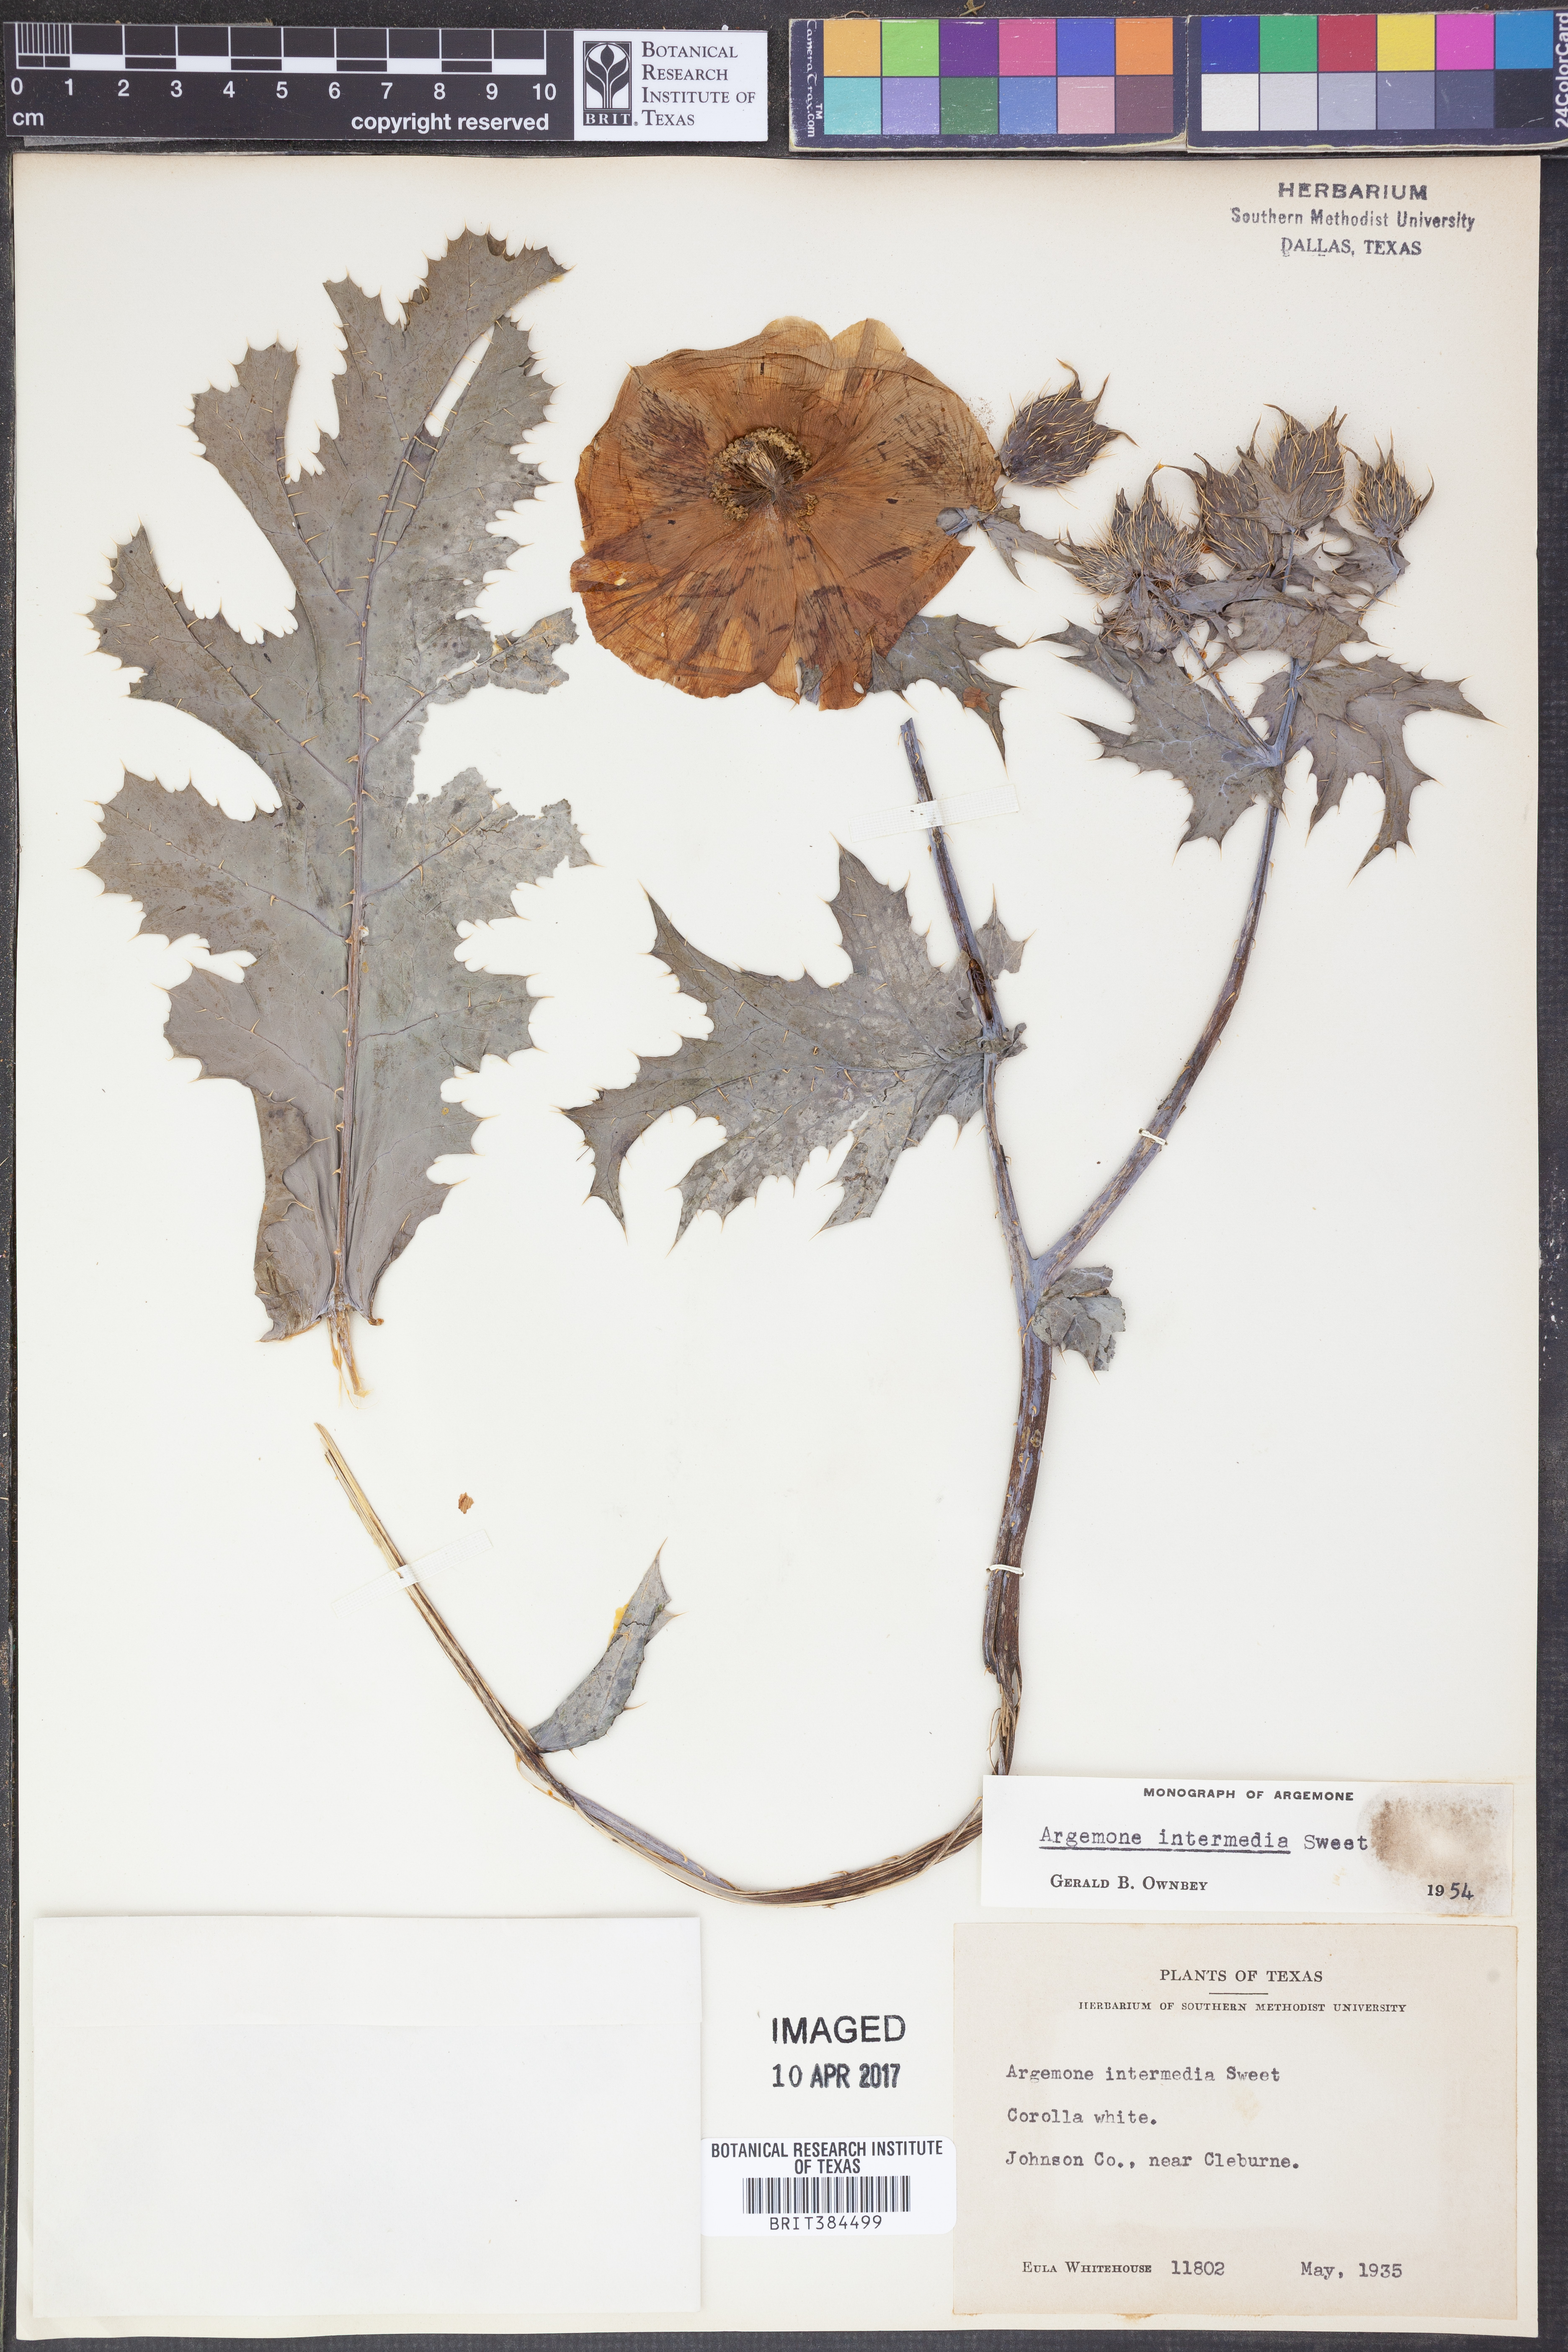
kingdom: Plantae
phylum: Tracheophyta
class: Magnoliopsida
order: Ranunculales
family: Papaveraceae
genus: Argemone
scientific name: Argemone intermedia
